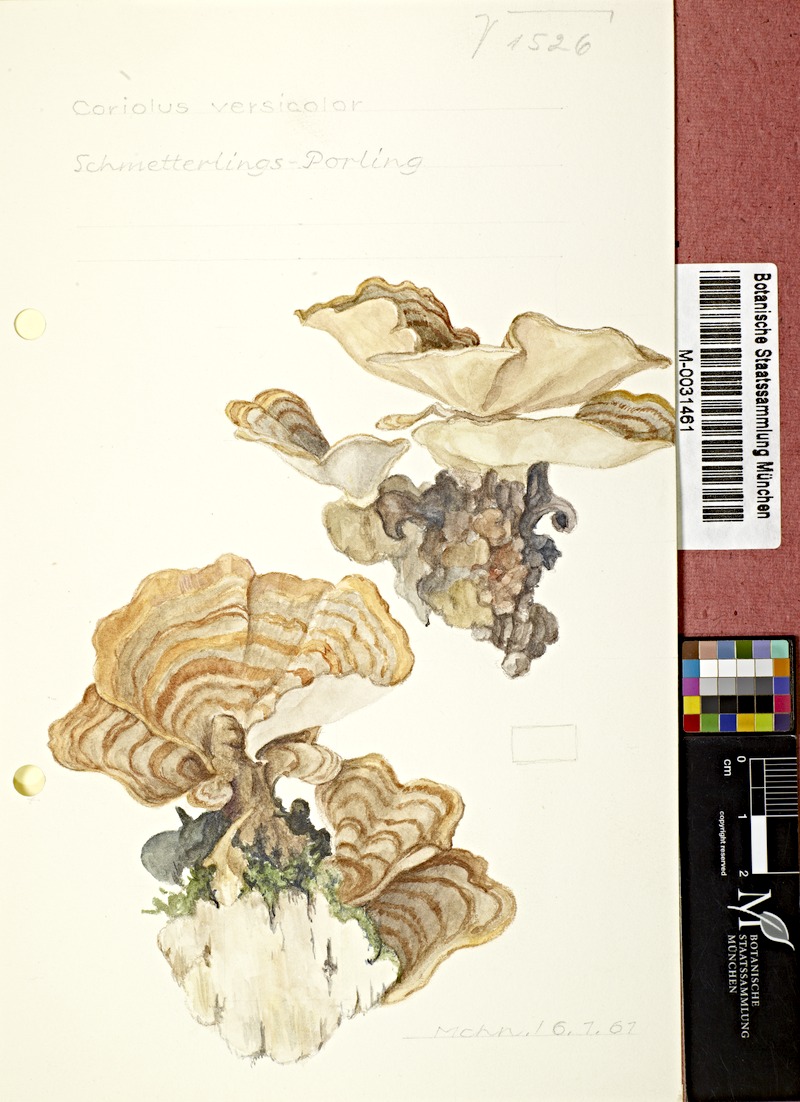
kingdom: Fungi
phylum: Basidiomycota
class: Agaricomycetes
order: Polyporales
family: Polyporaceae
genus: Trametes
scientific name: Trametes versicolor
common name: Turkeytail
